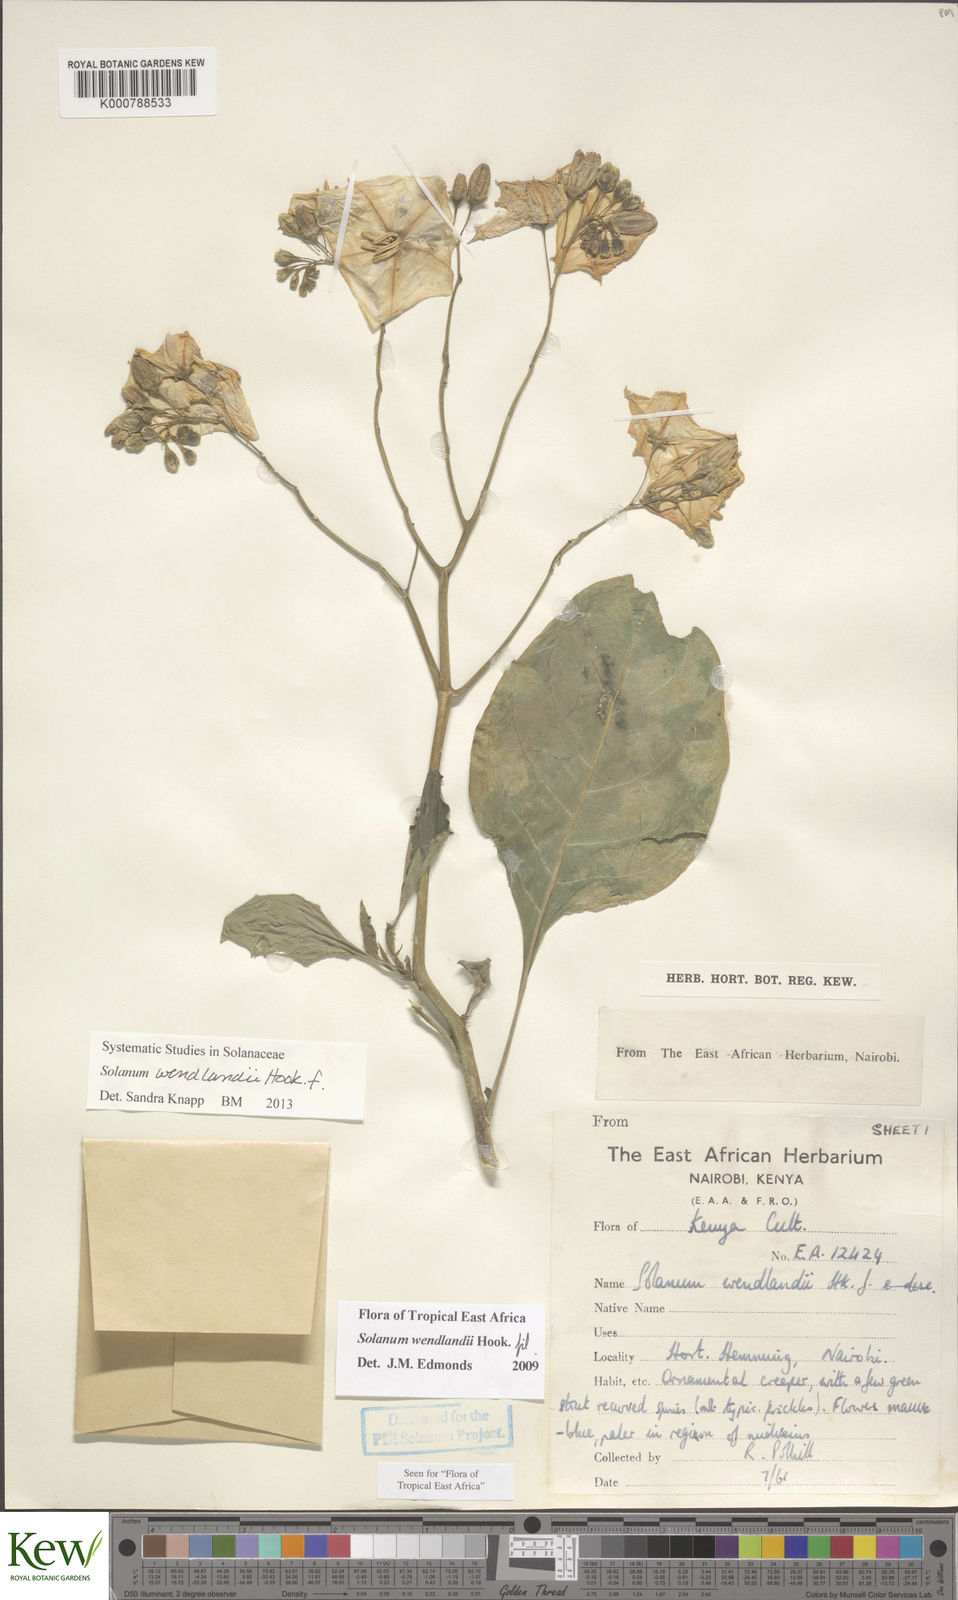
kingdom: Plantae
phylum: Tracheophyta
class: Magnoliopsida
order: Solanales
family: Solanaceae
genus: Solanum
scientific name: Solanum wendlandii
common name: Costa rican nightshade
